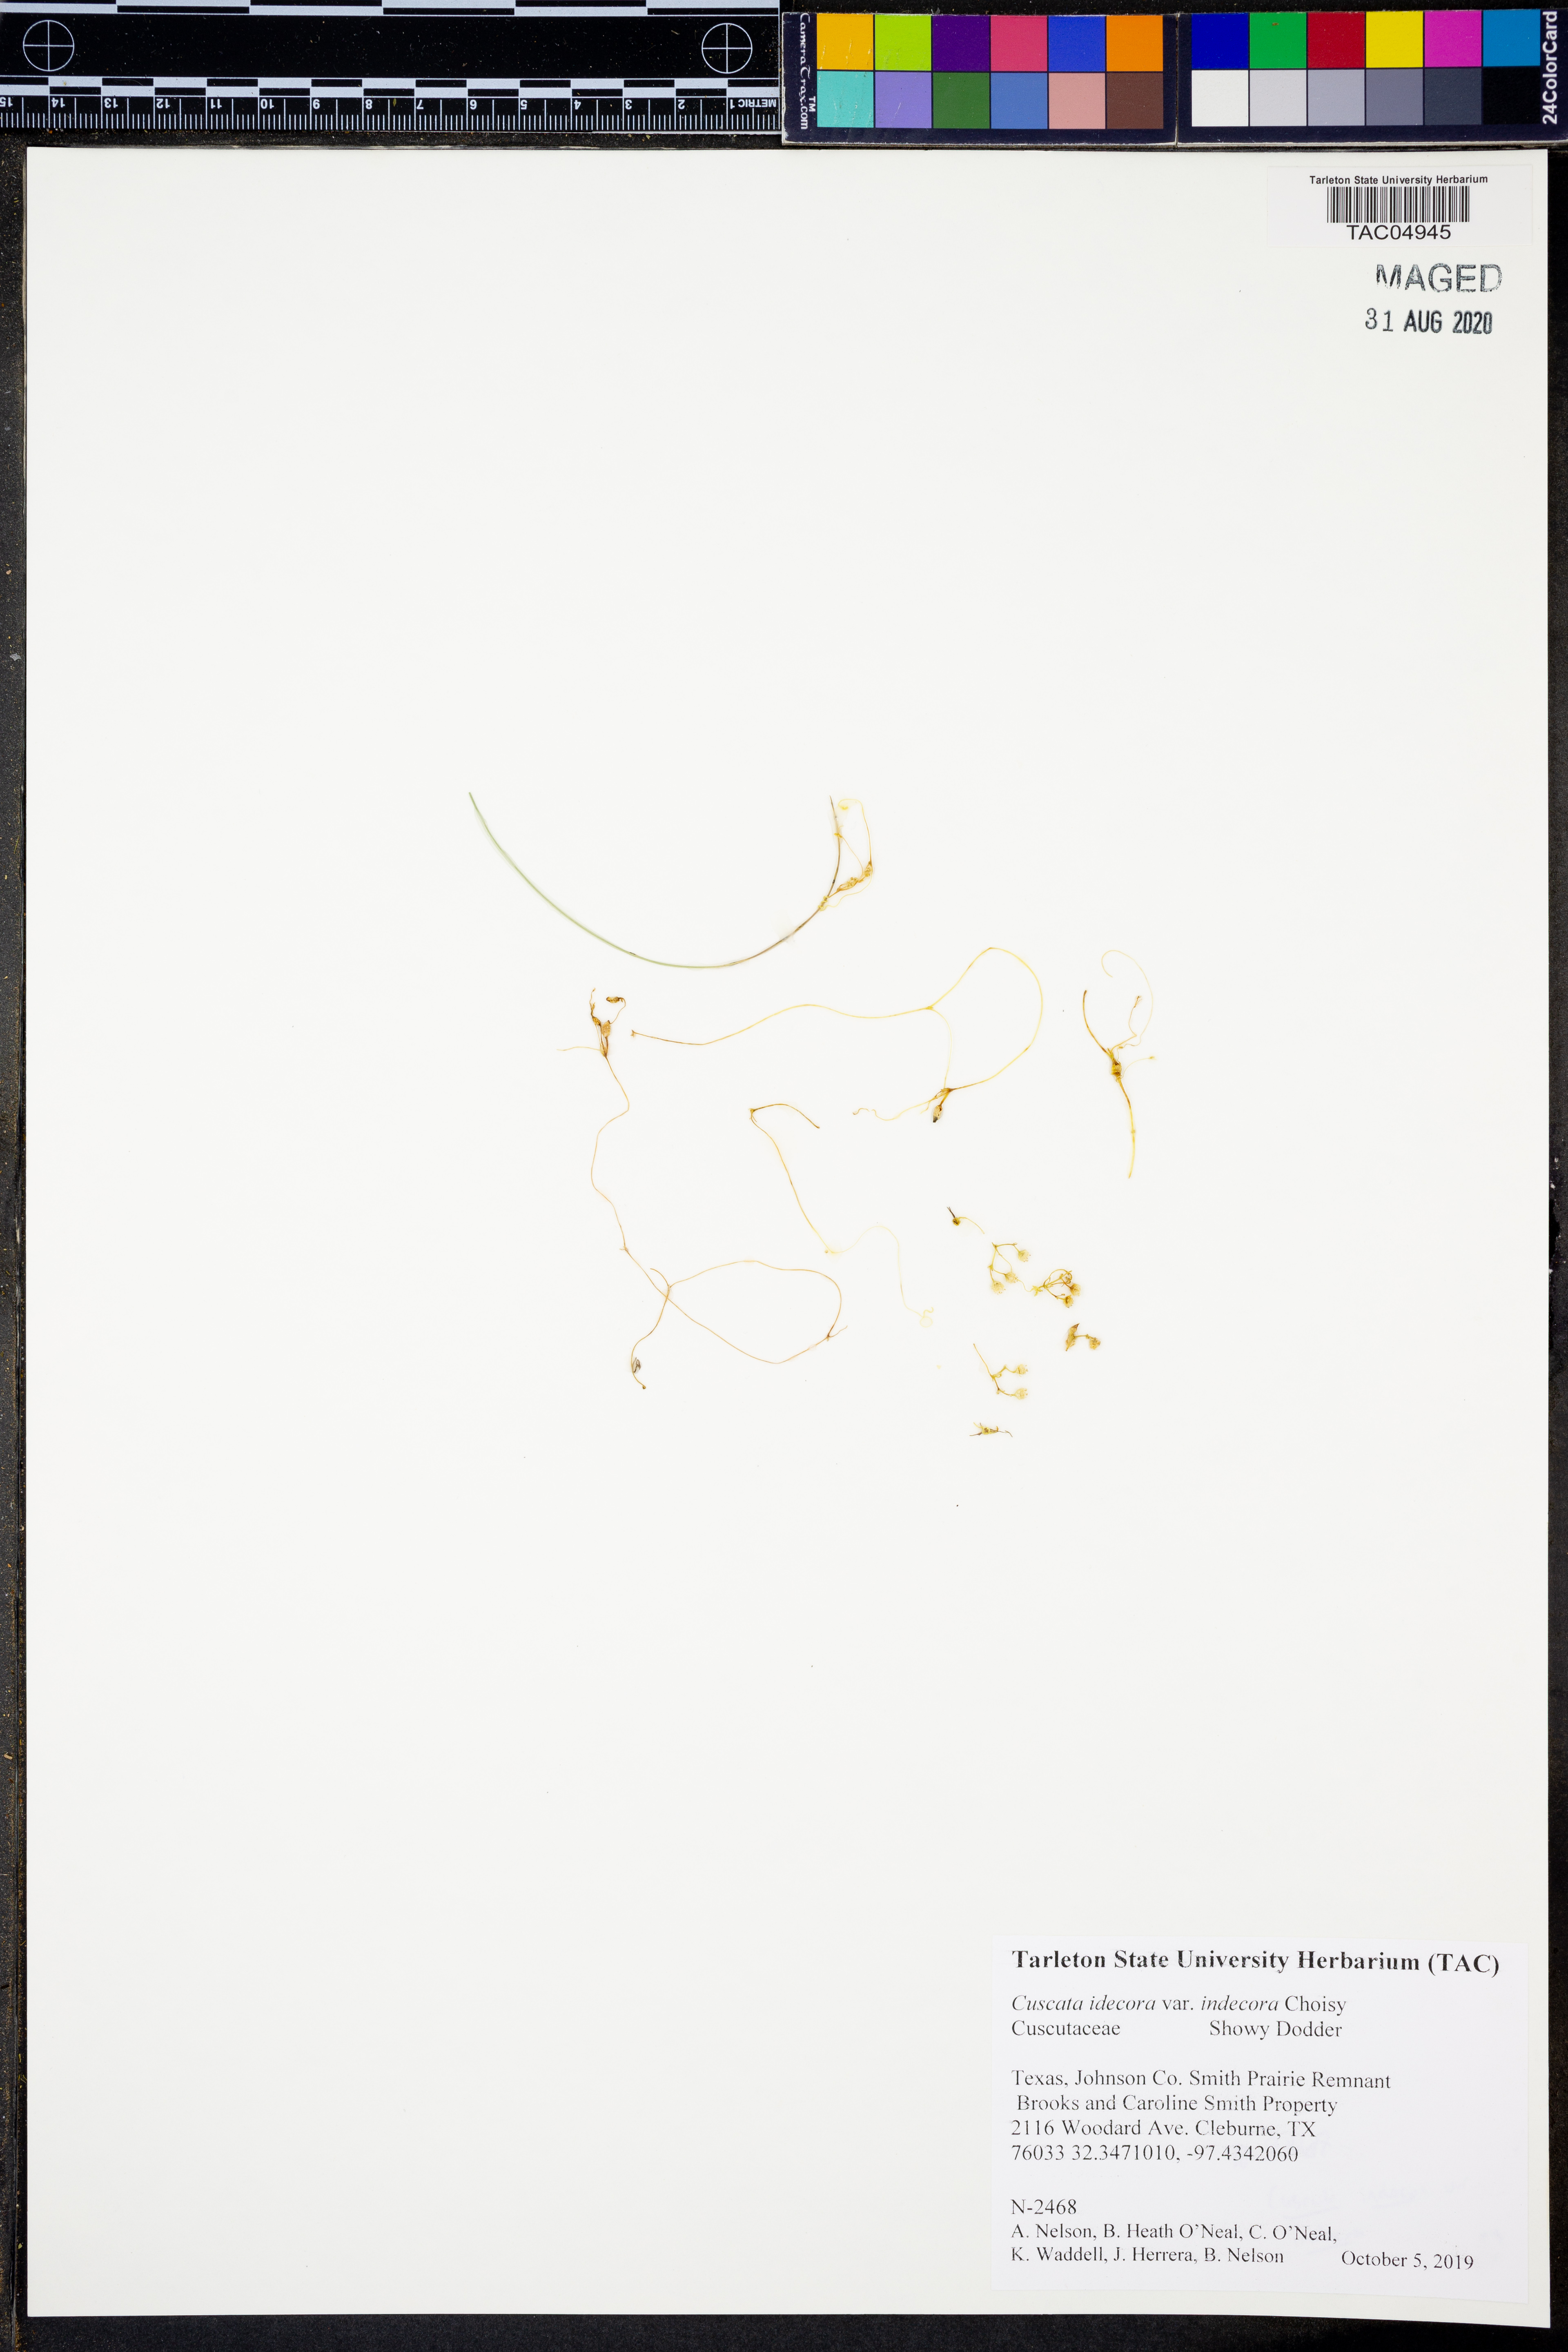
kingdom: Plantae
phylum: Tracheophyta
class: Magnoliopsida
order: Solanales
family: Convolvulaceae
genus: Cuscuta
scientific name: Cuscuta indecora
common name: Large-seed dodder
